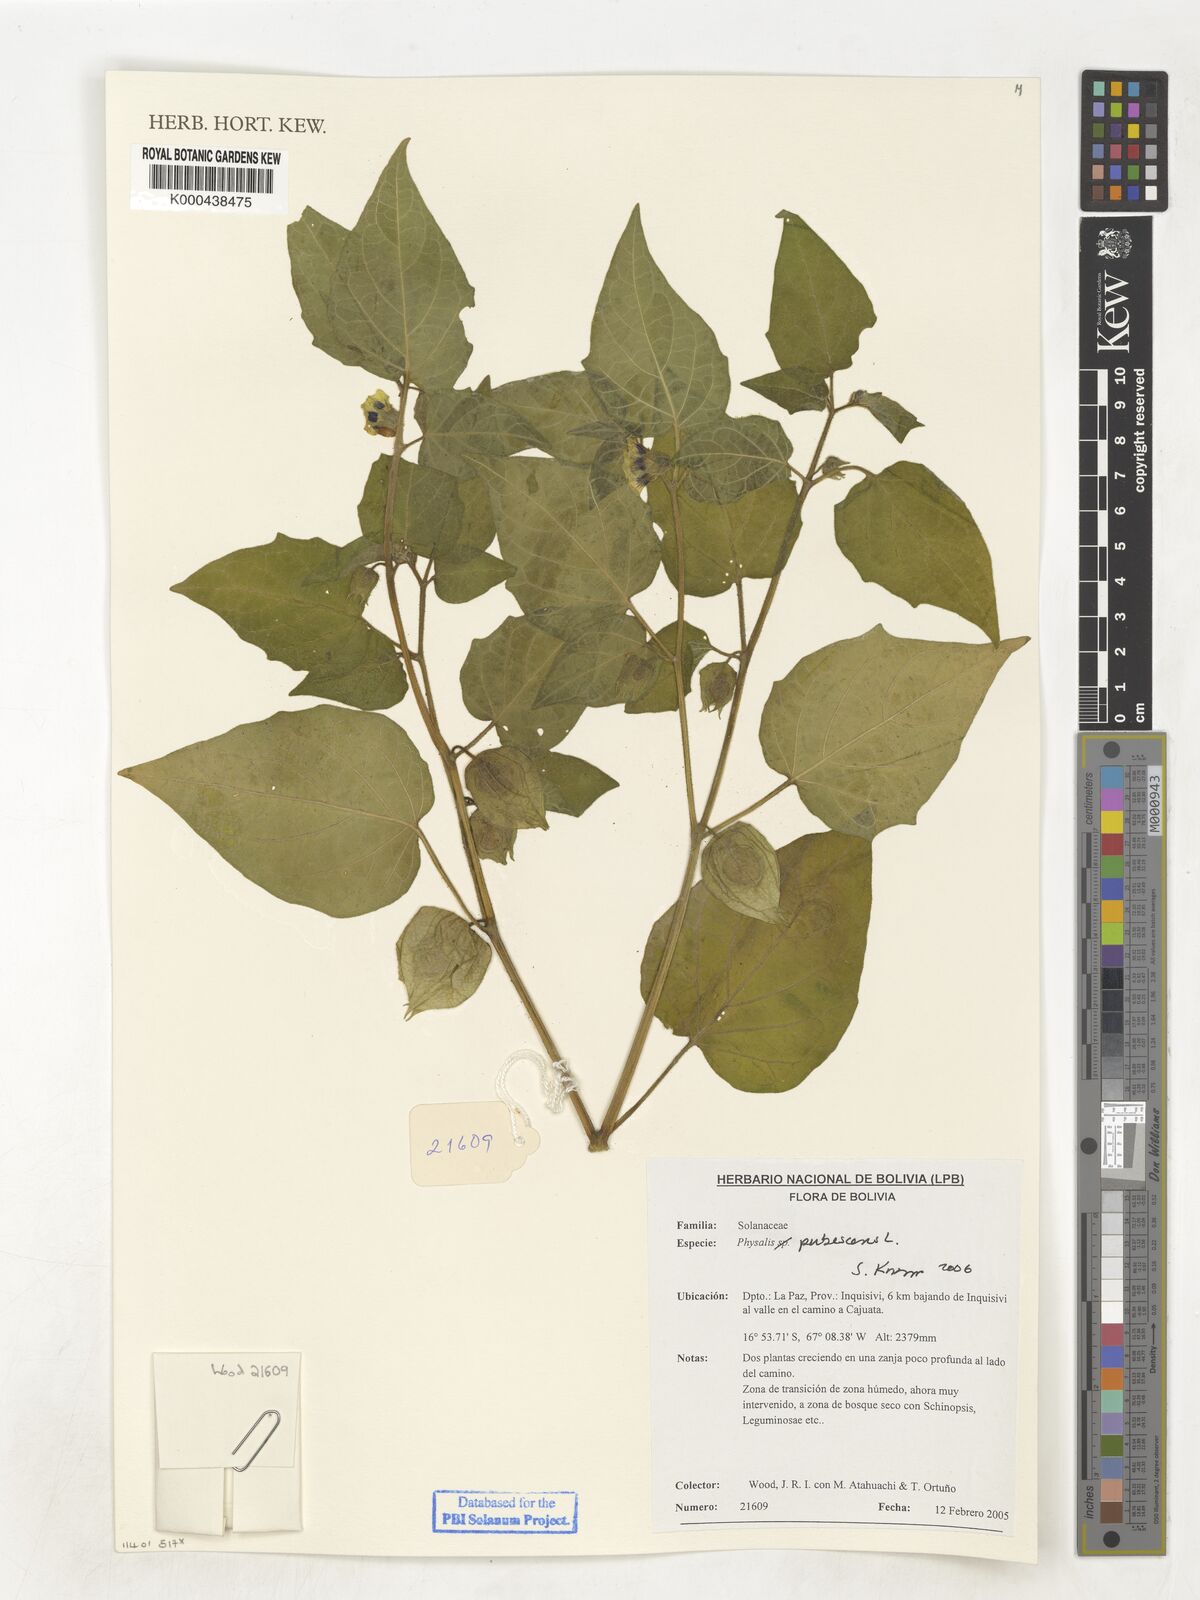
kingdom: Plantae
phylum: Tracheophyta
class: Magnoliopsida
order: Solanales
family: Solanaceae
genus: Physalis
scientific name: Physalis pubescens
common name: Downy ground-cherry
